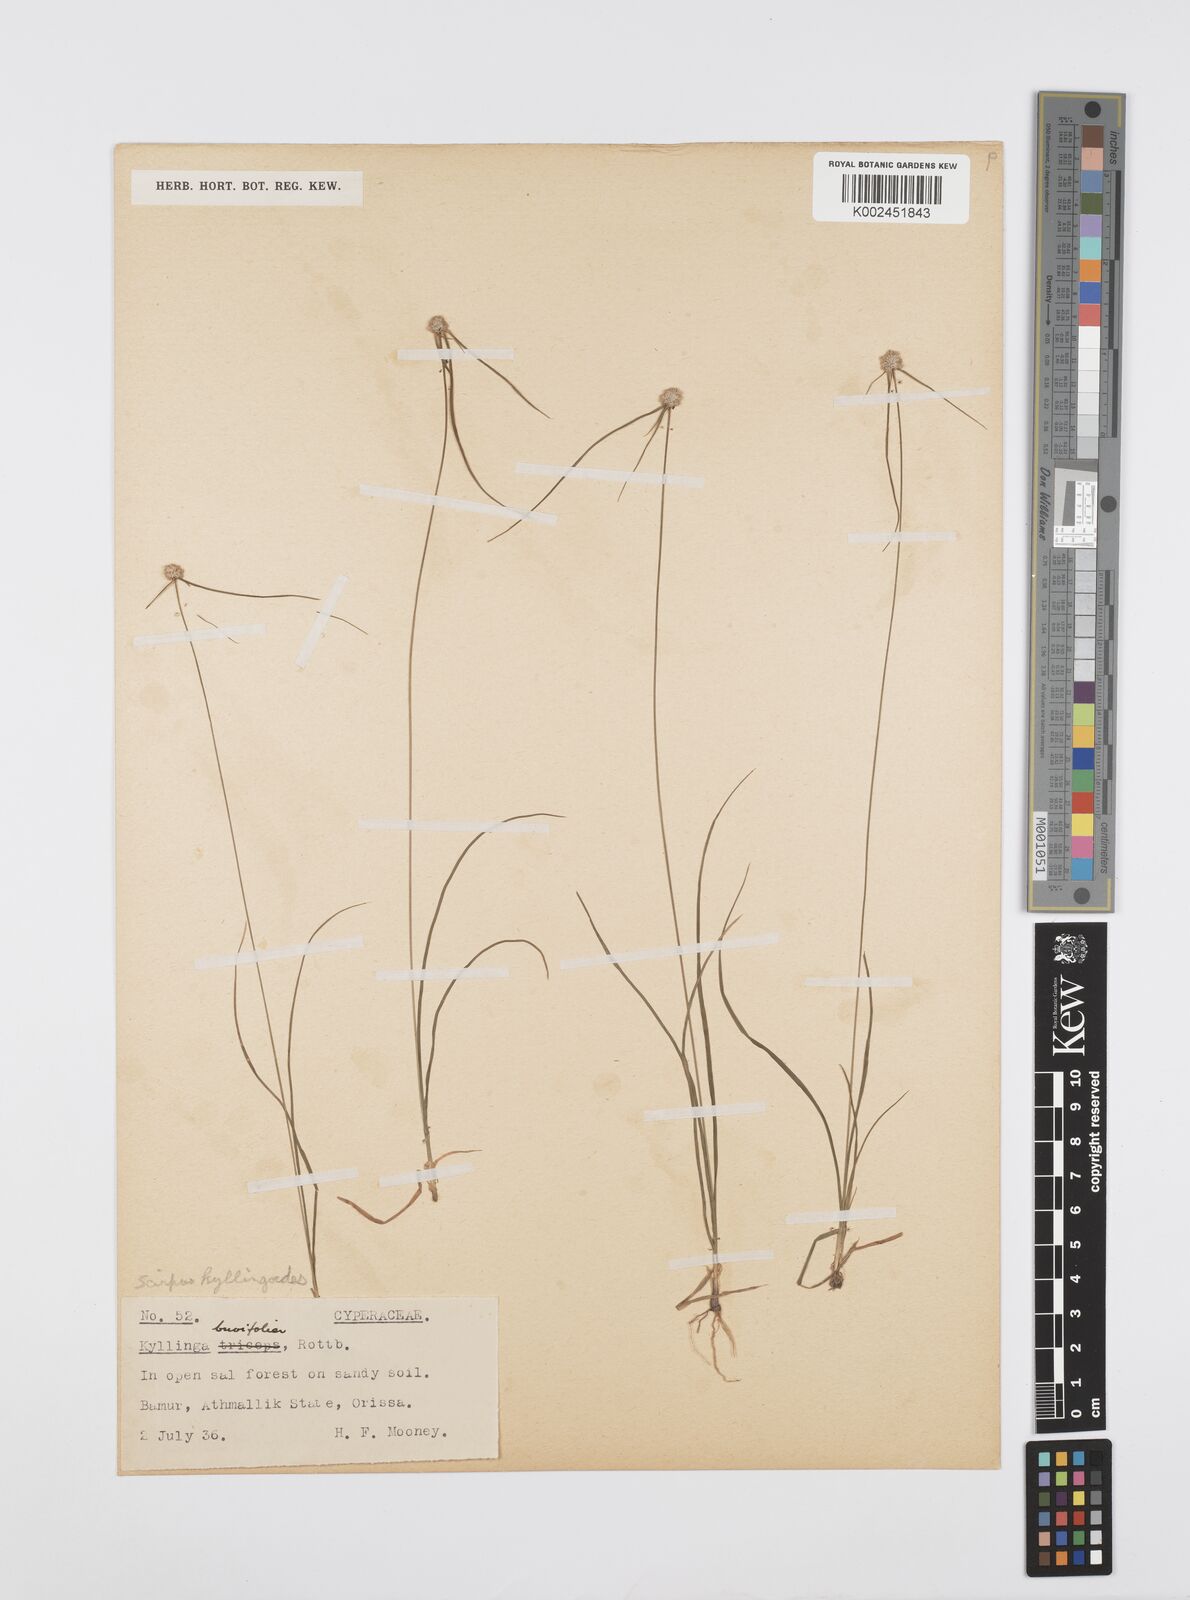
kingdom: Plantae
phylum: Tracheophyta
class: Liliopsida
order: Poales
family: Cyperaceae
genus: Cyperus
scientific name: Cyperus
